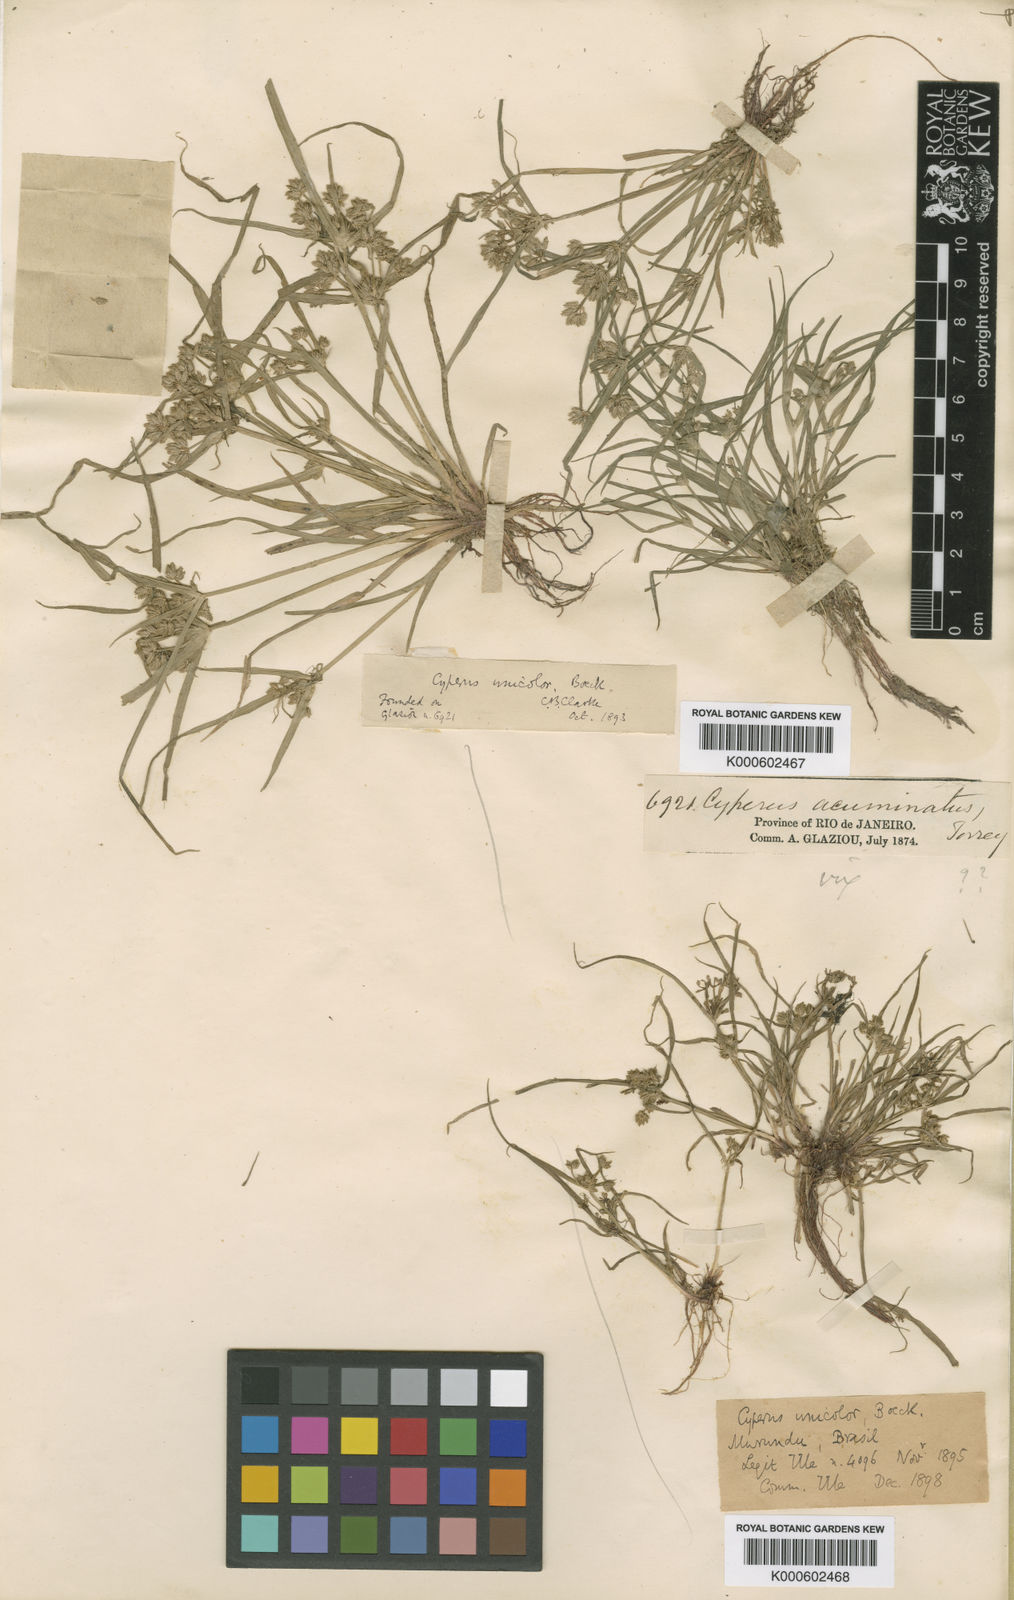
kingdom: Plantae
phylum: Tracheophyta
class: Liliopsida
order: Poales
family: Cyperaceae
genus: Cyperus
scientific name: Cyperus unicolor
